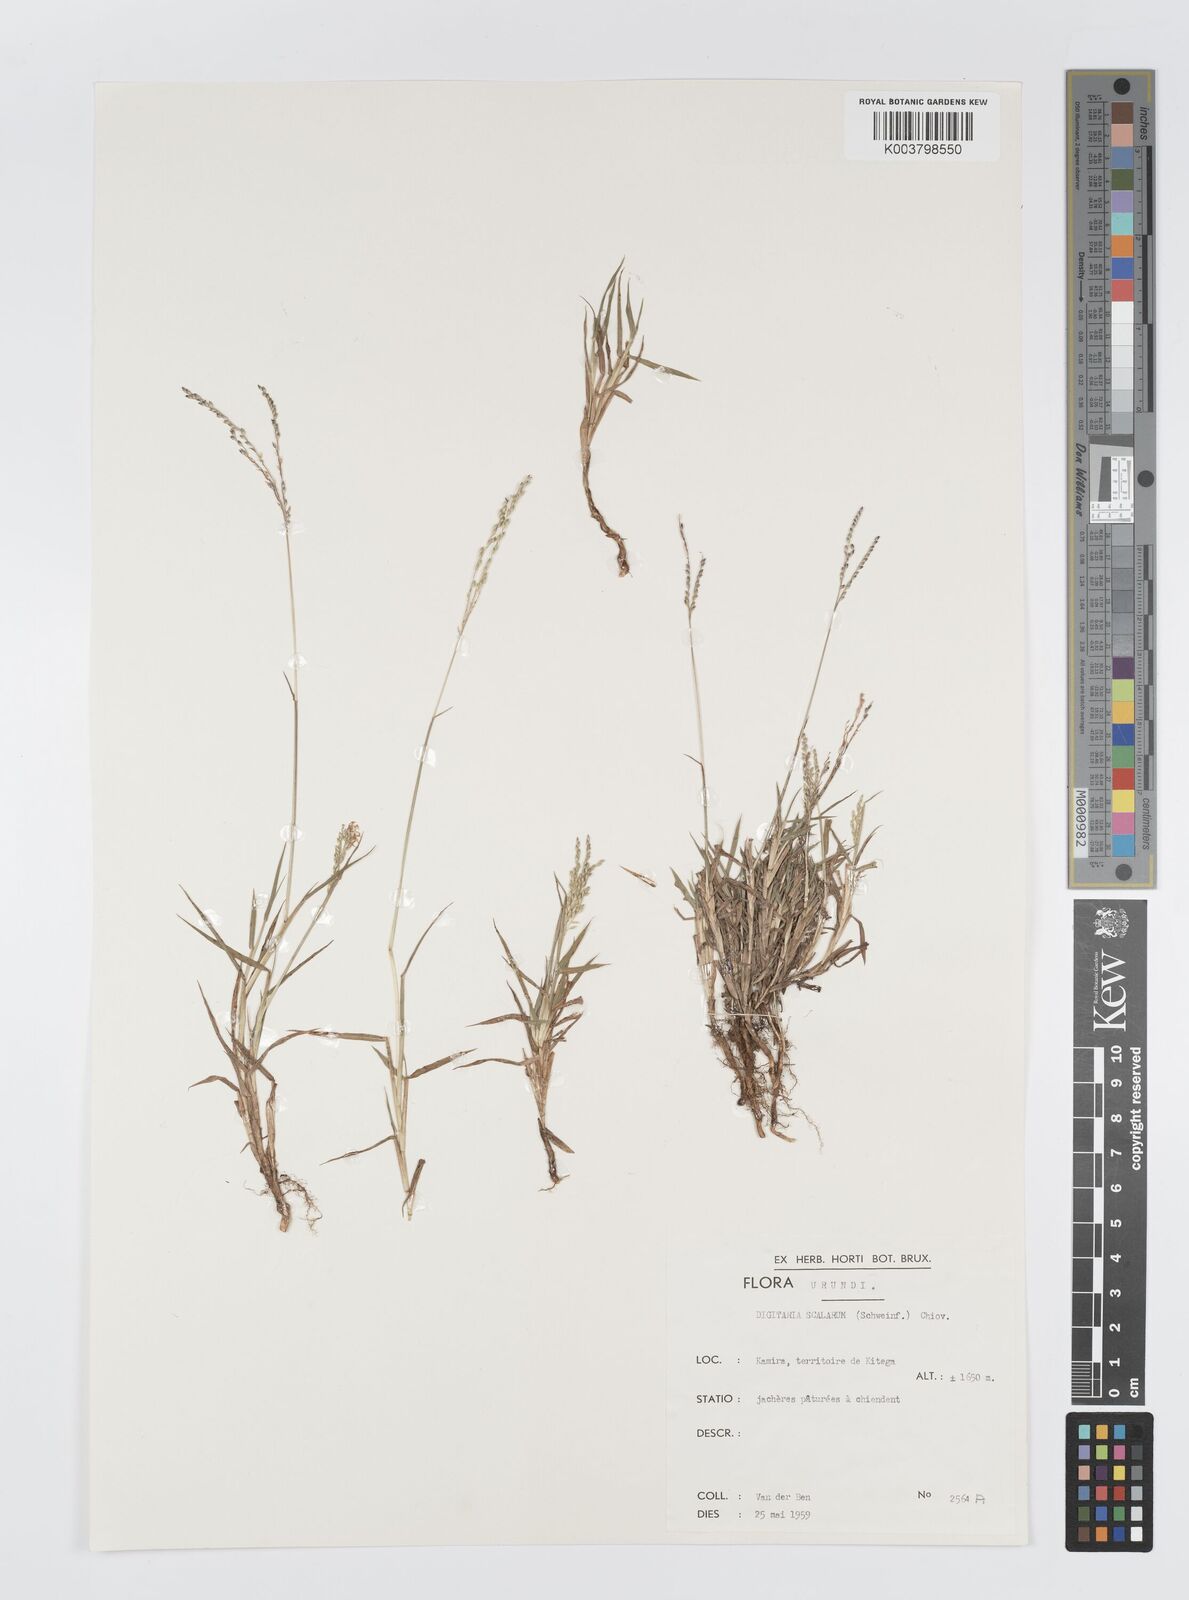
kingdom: Plantae
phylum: Tracheophyta
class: Liliopsida
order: Poales
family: Poaceae
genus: Digitaria
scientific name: Digitaria abyssinica
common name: African couchgrass
